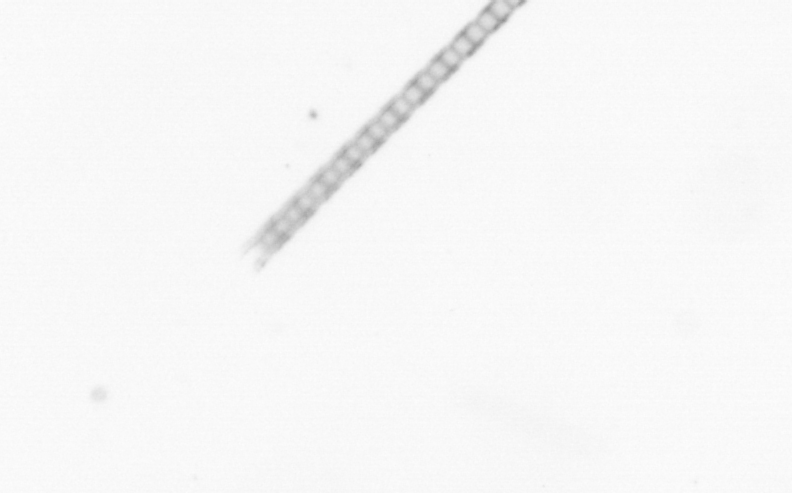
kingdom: Chromista
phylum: Ochrophyta
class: Bacillariophyceae
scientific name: Bacillariophyceae
